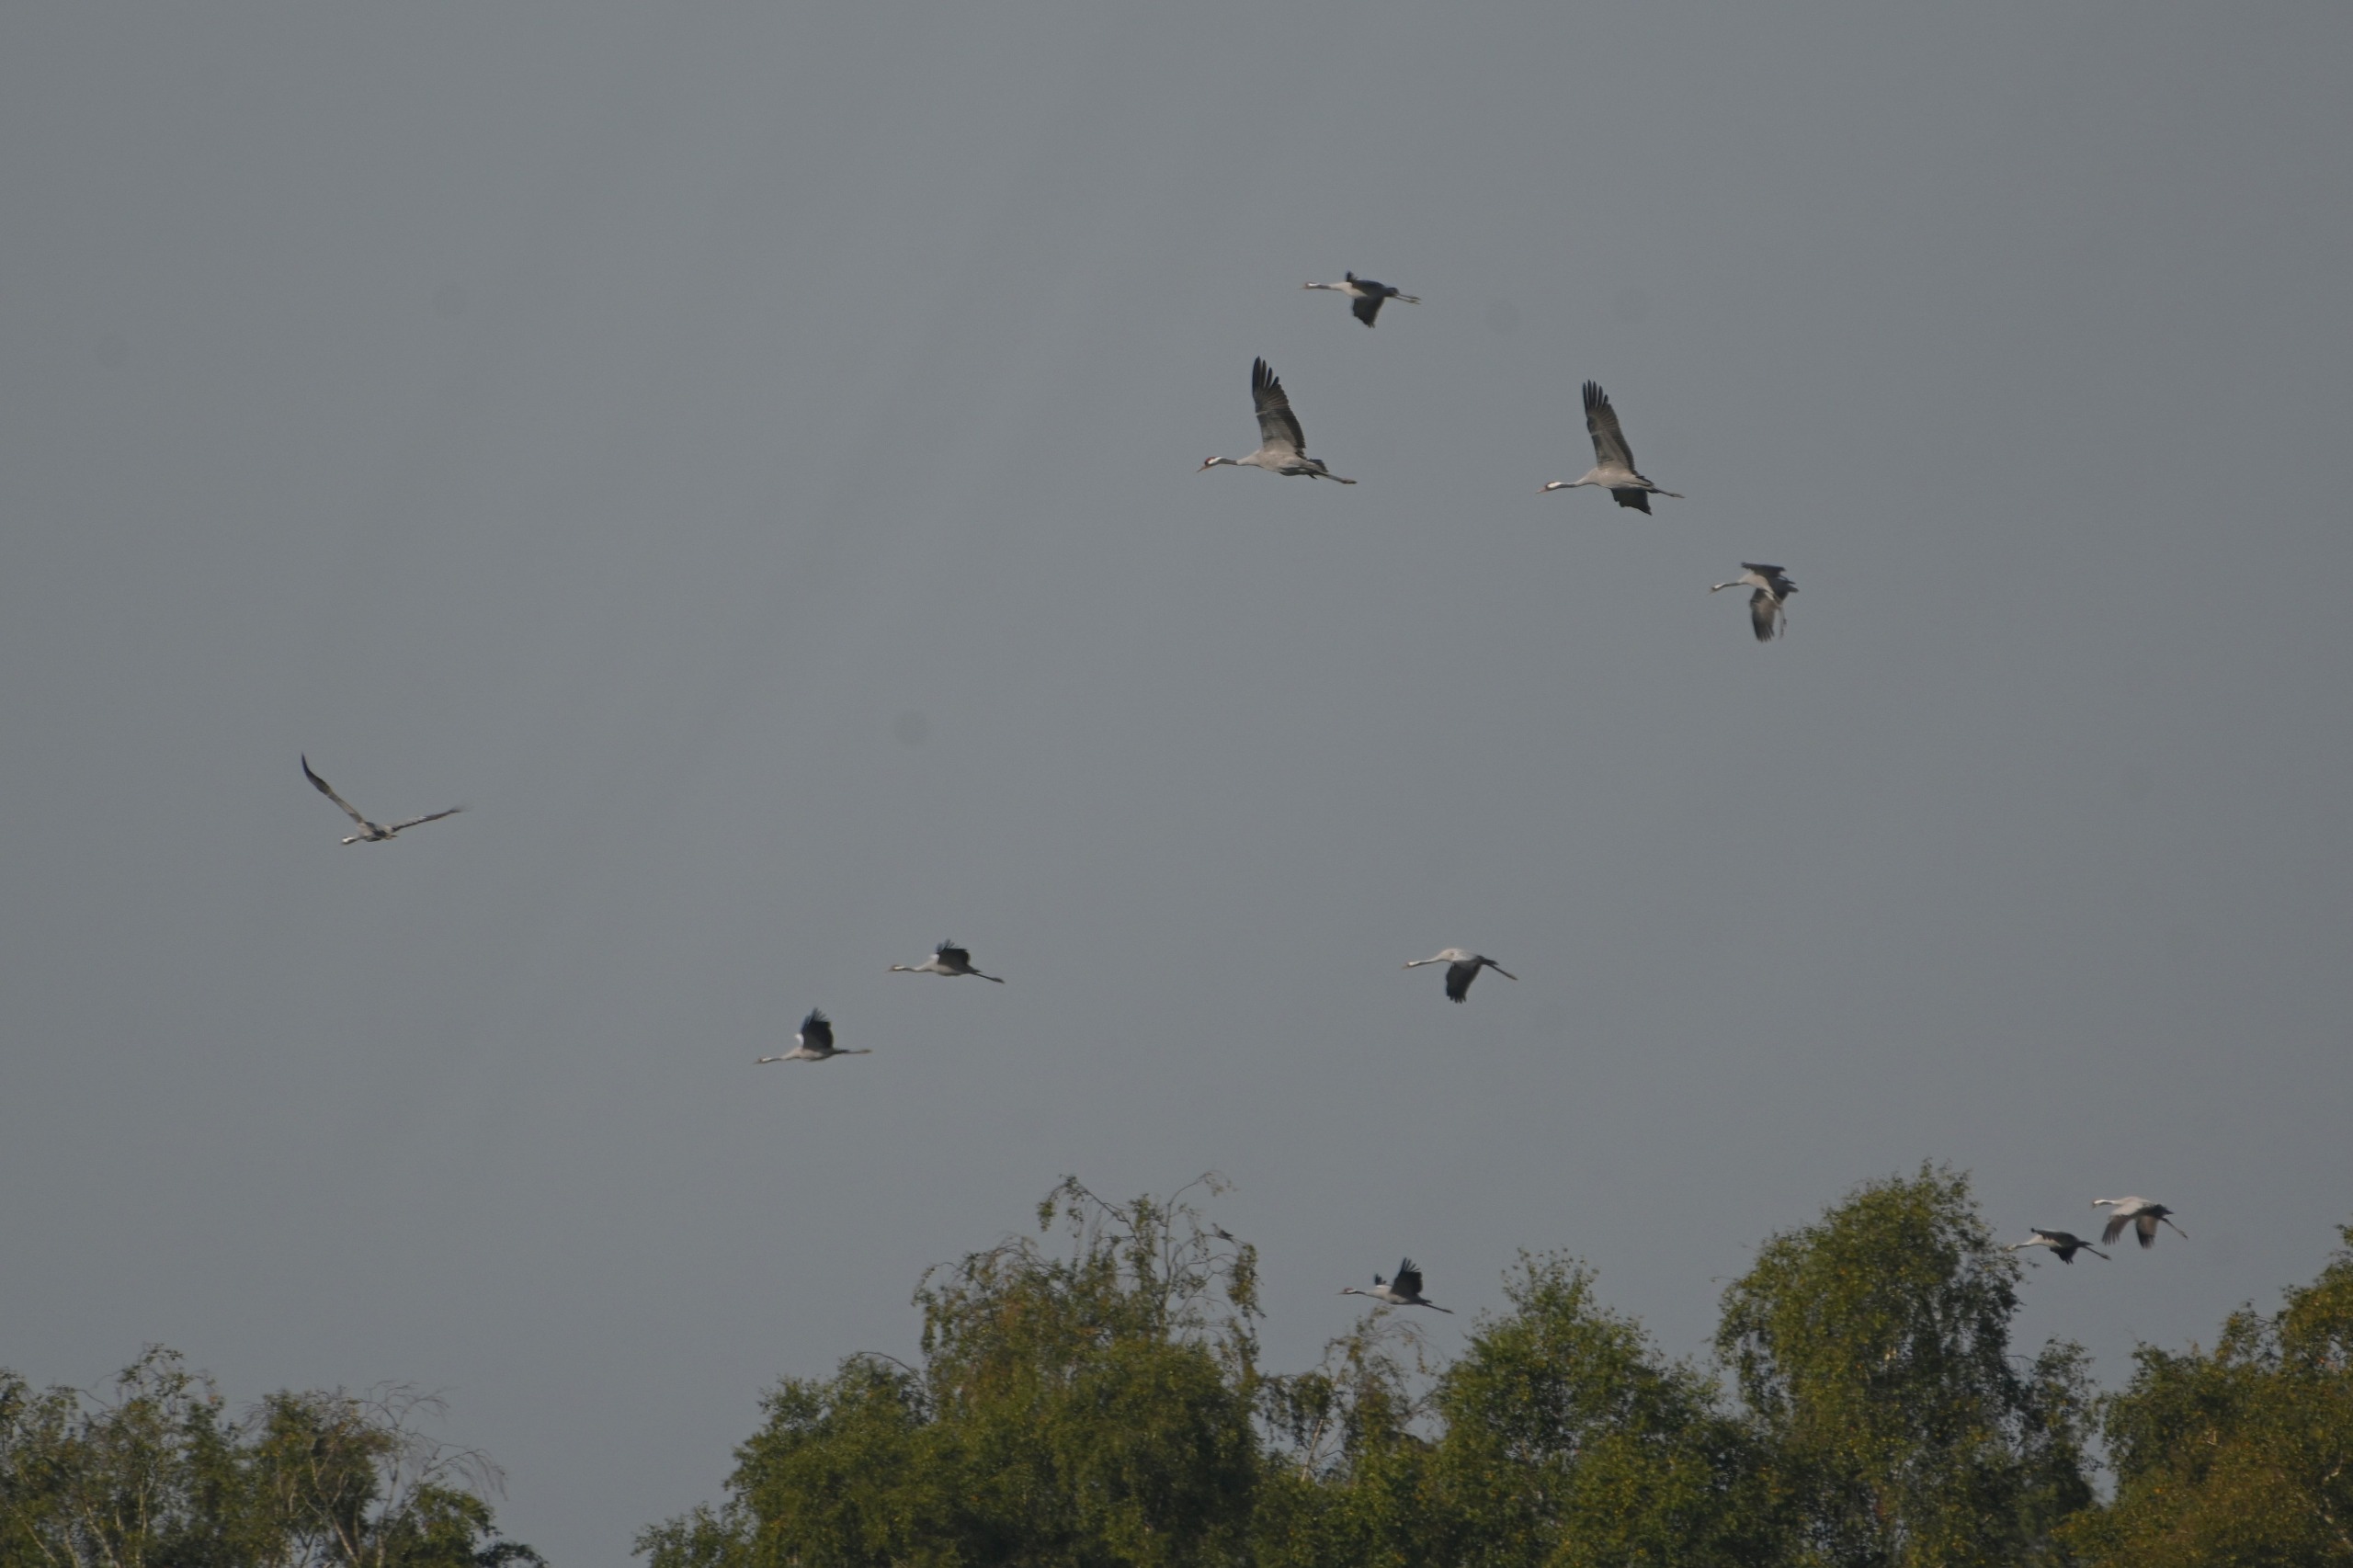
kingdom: Animalia
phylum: Chordata
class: Aves
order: Gruiformes
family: Gruidae
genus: Grus
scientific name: Grus grus
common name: Trane
